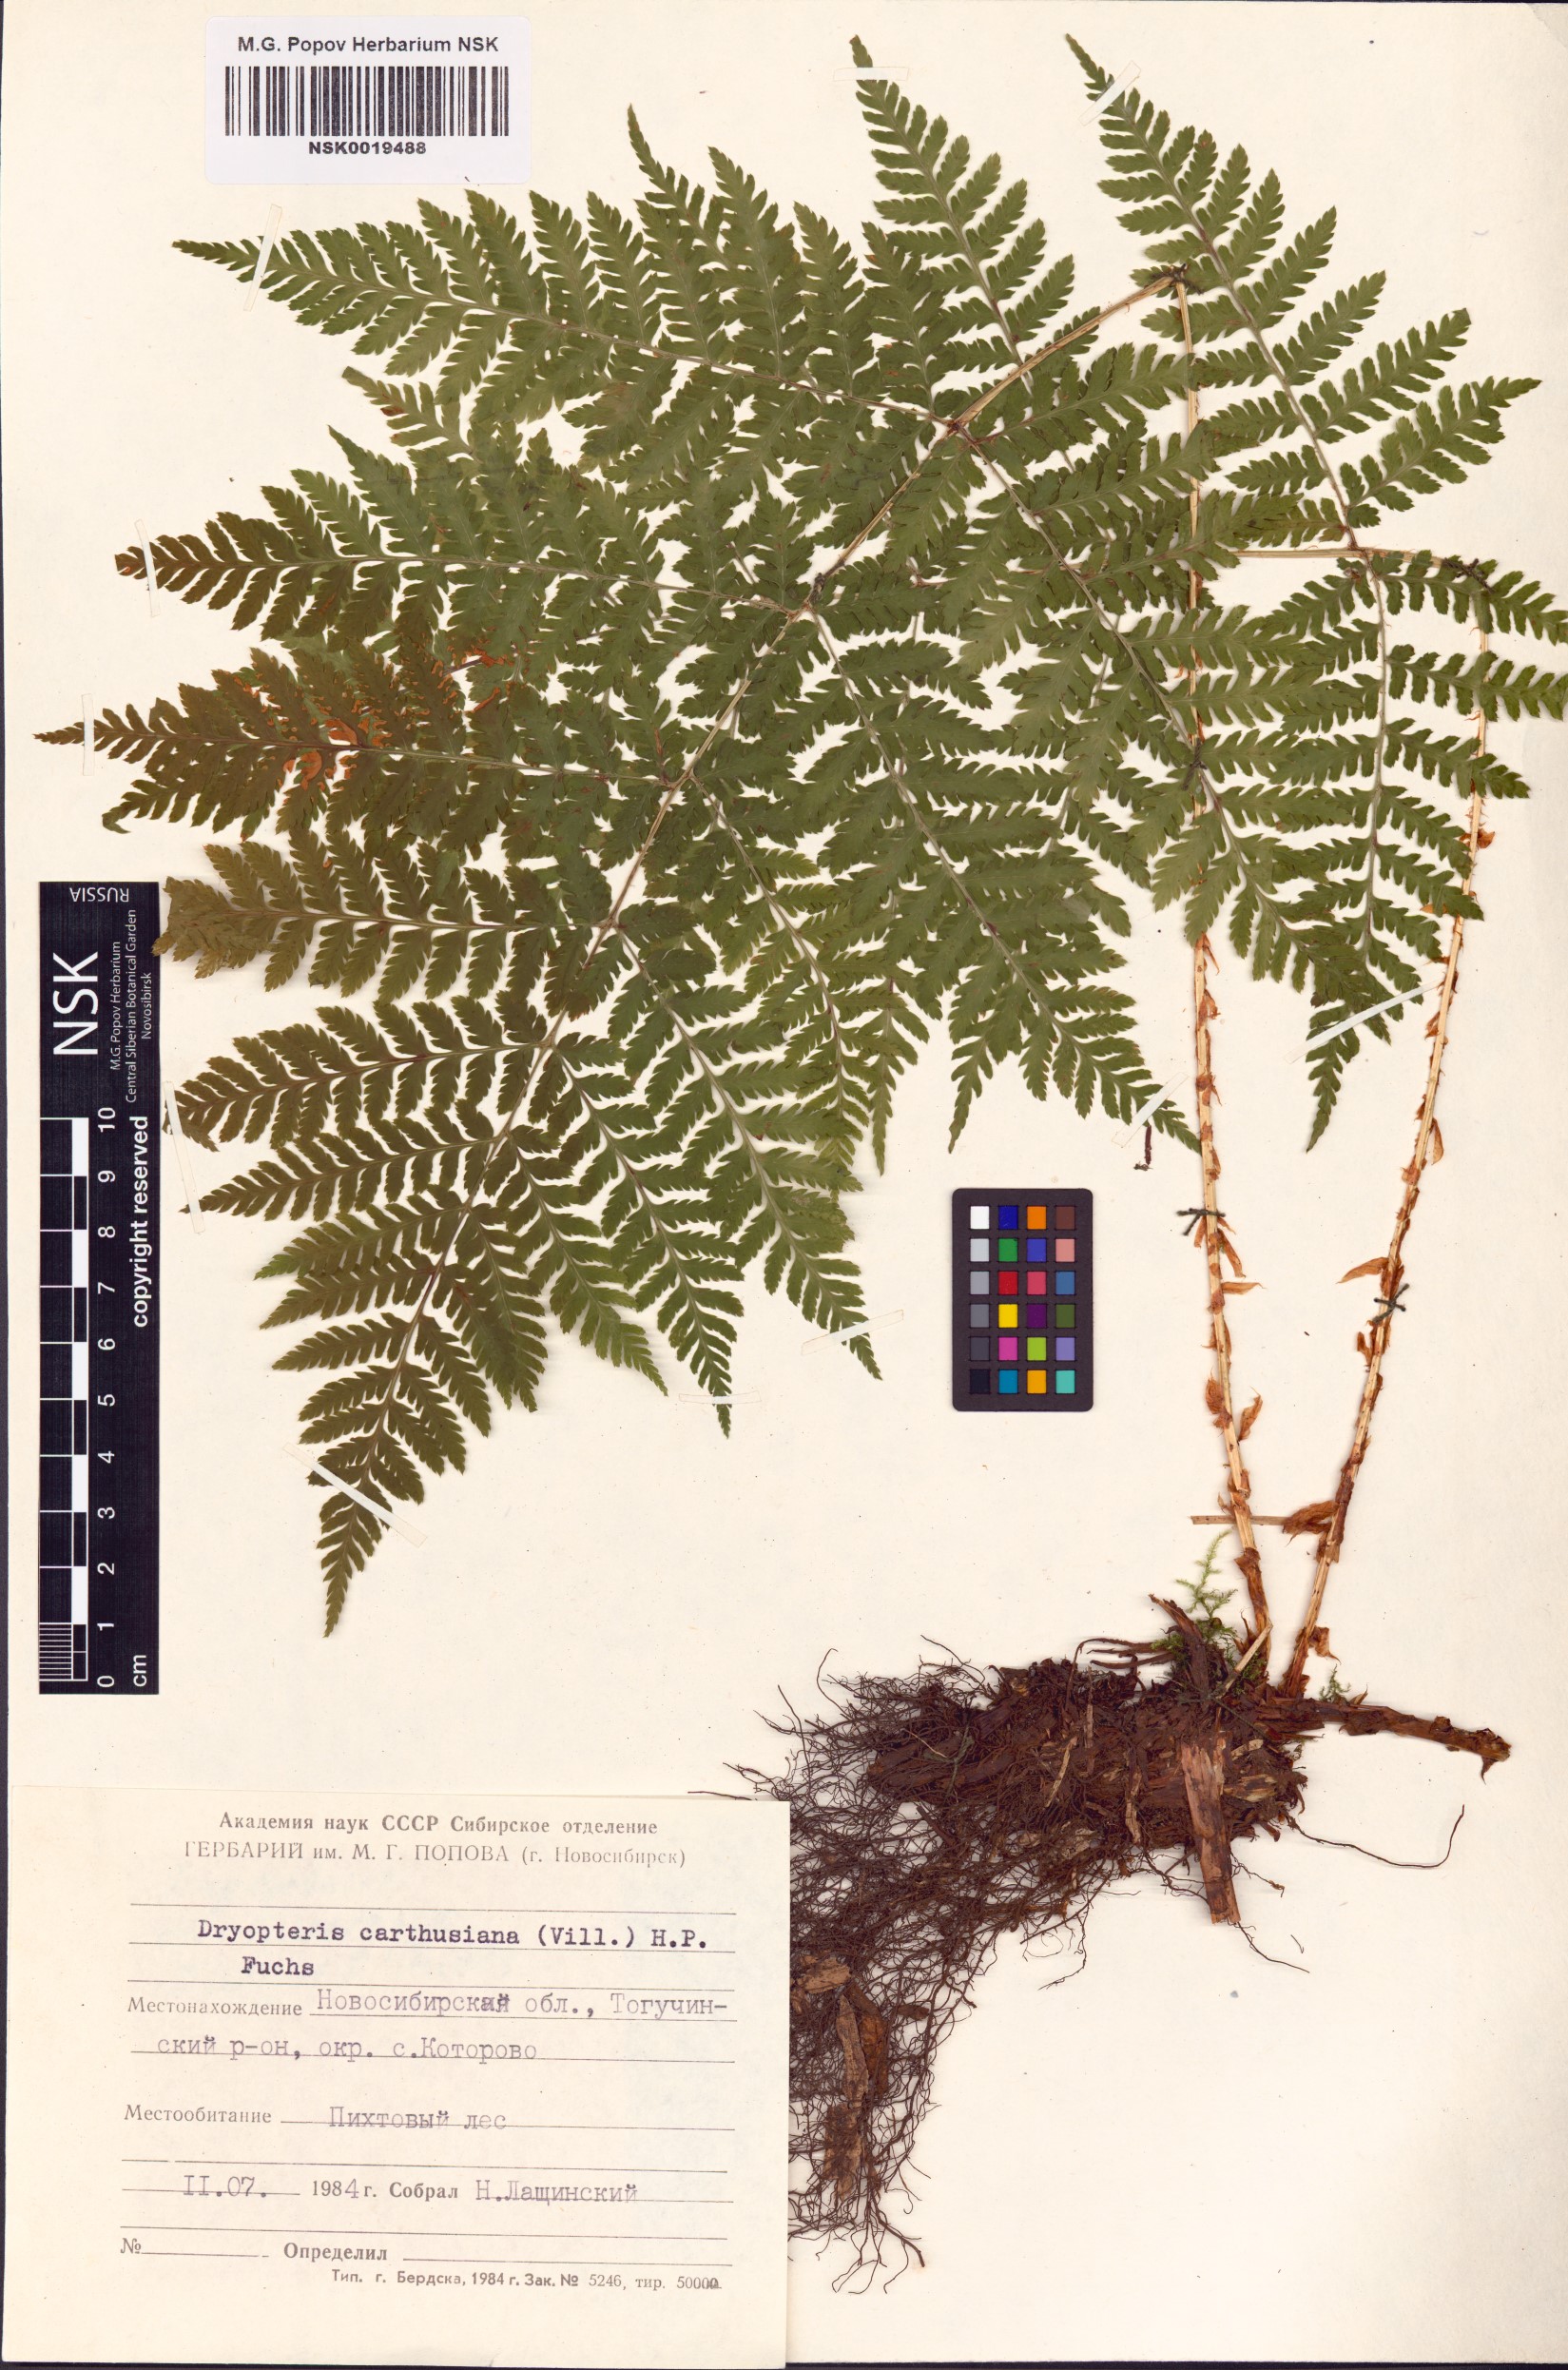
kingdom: Plantae
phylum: Tracheophyta
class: Polypodiopsida
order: Polypodiales
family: Dryopteridaceae
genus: Dryopteris
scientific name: Dryopteris carthusiana
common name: Narrow buckler-fern
